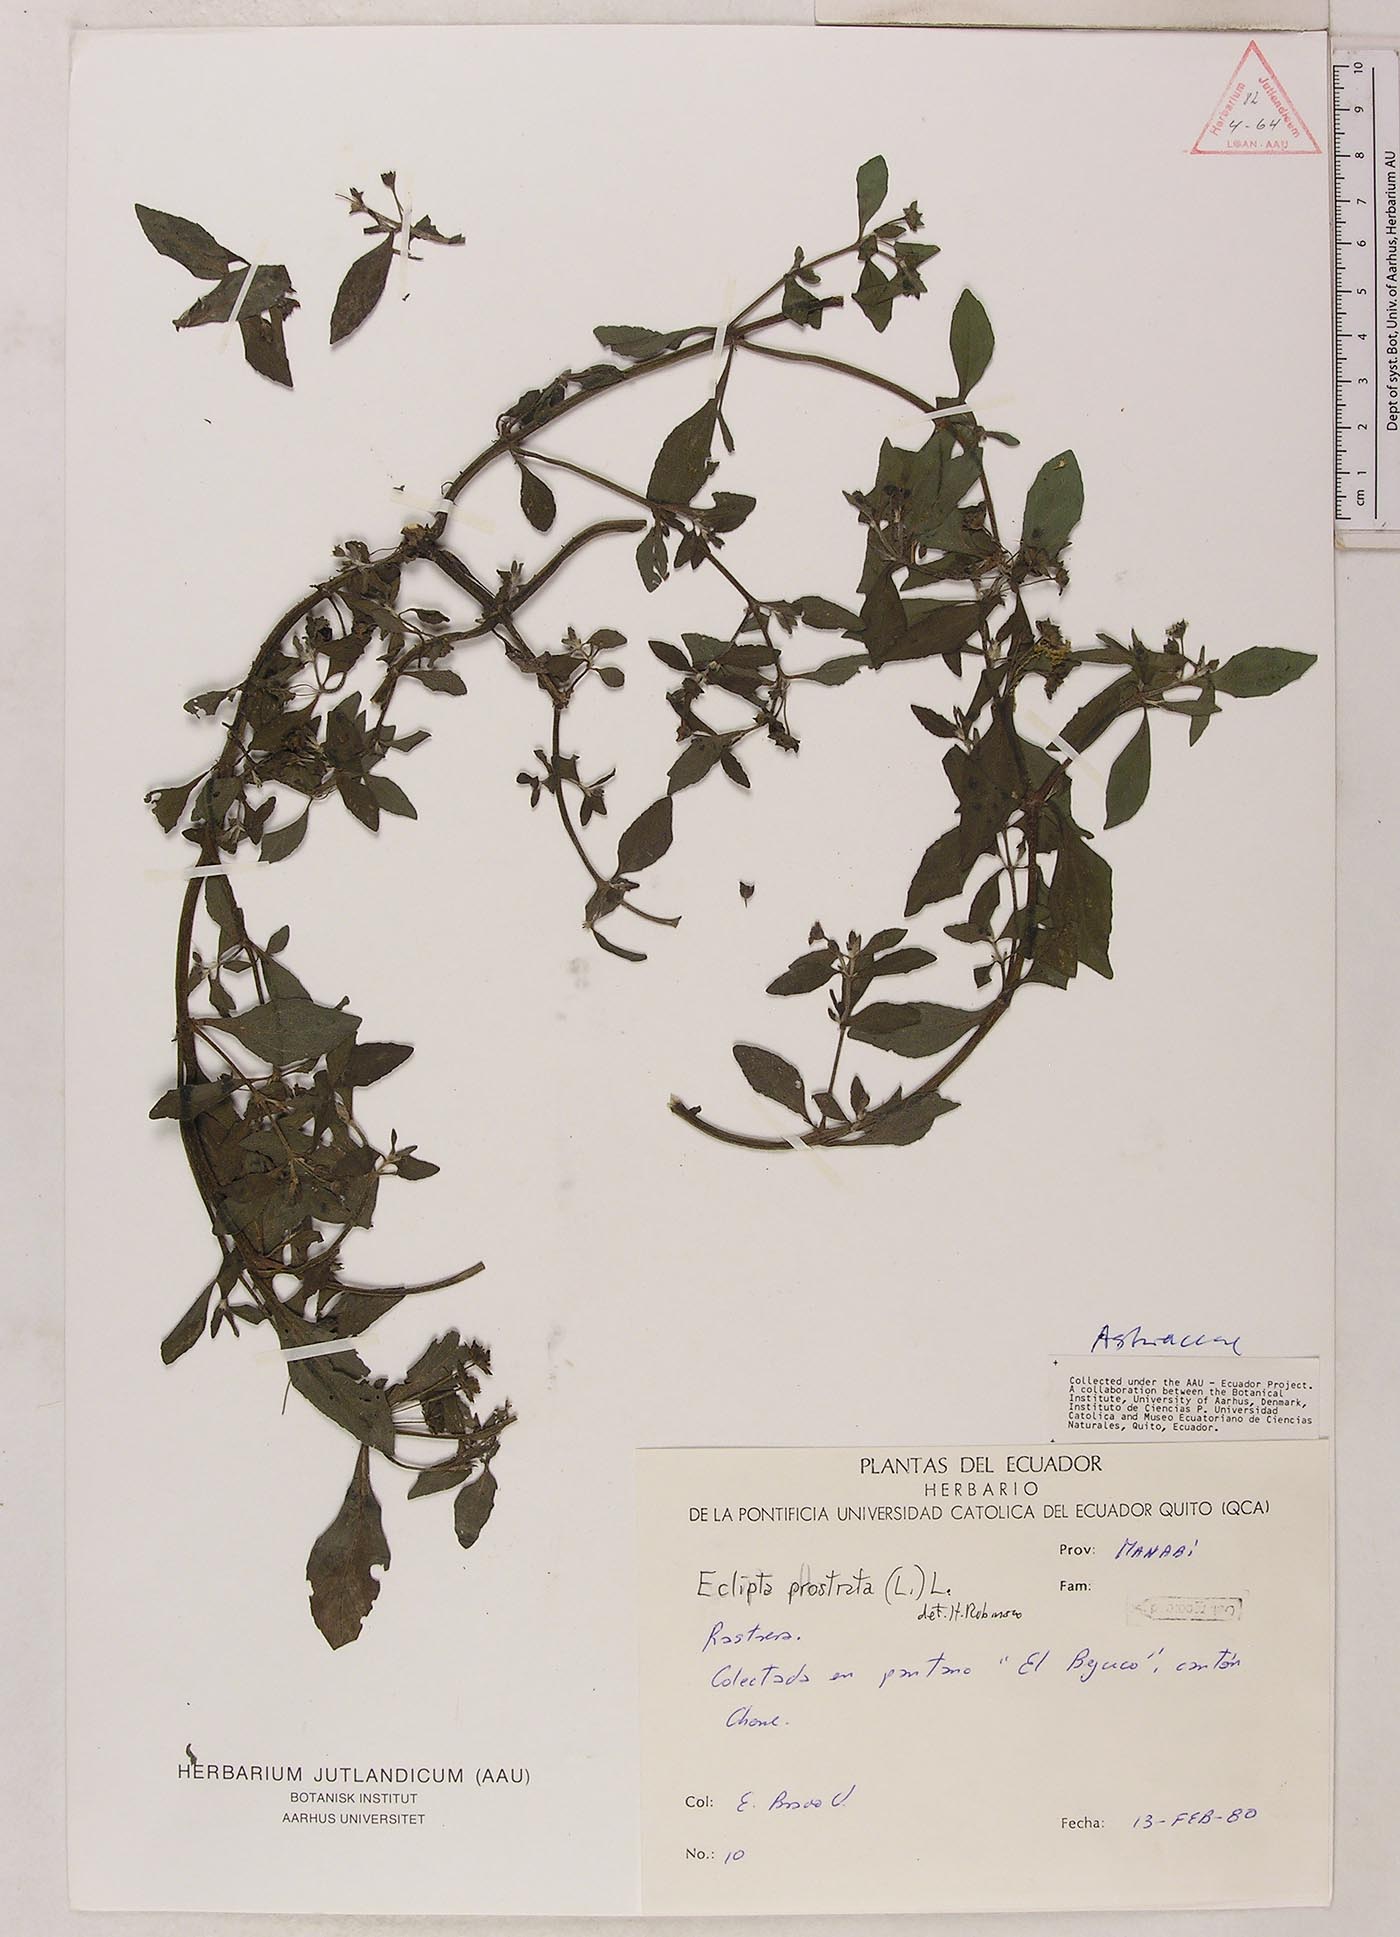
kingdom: Plantae
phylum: Tracheophyta
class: Magnoliopsida
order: Asterales
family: Asteraceae
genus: Eclipta
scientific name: Eclipta prostrata
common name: False daisy
